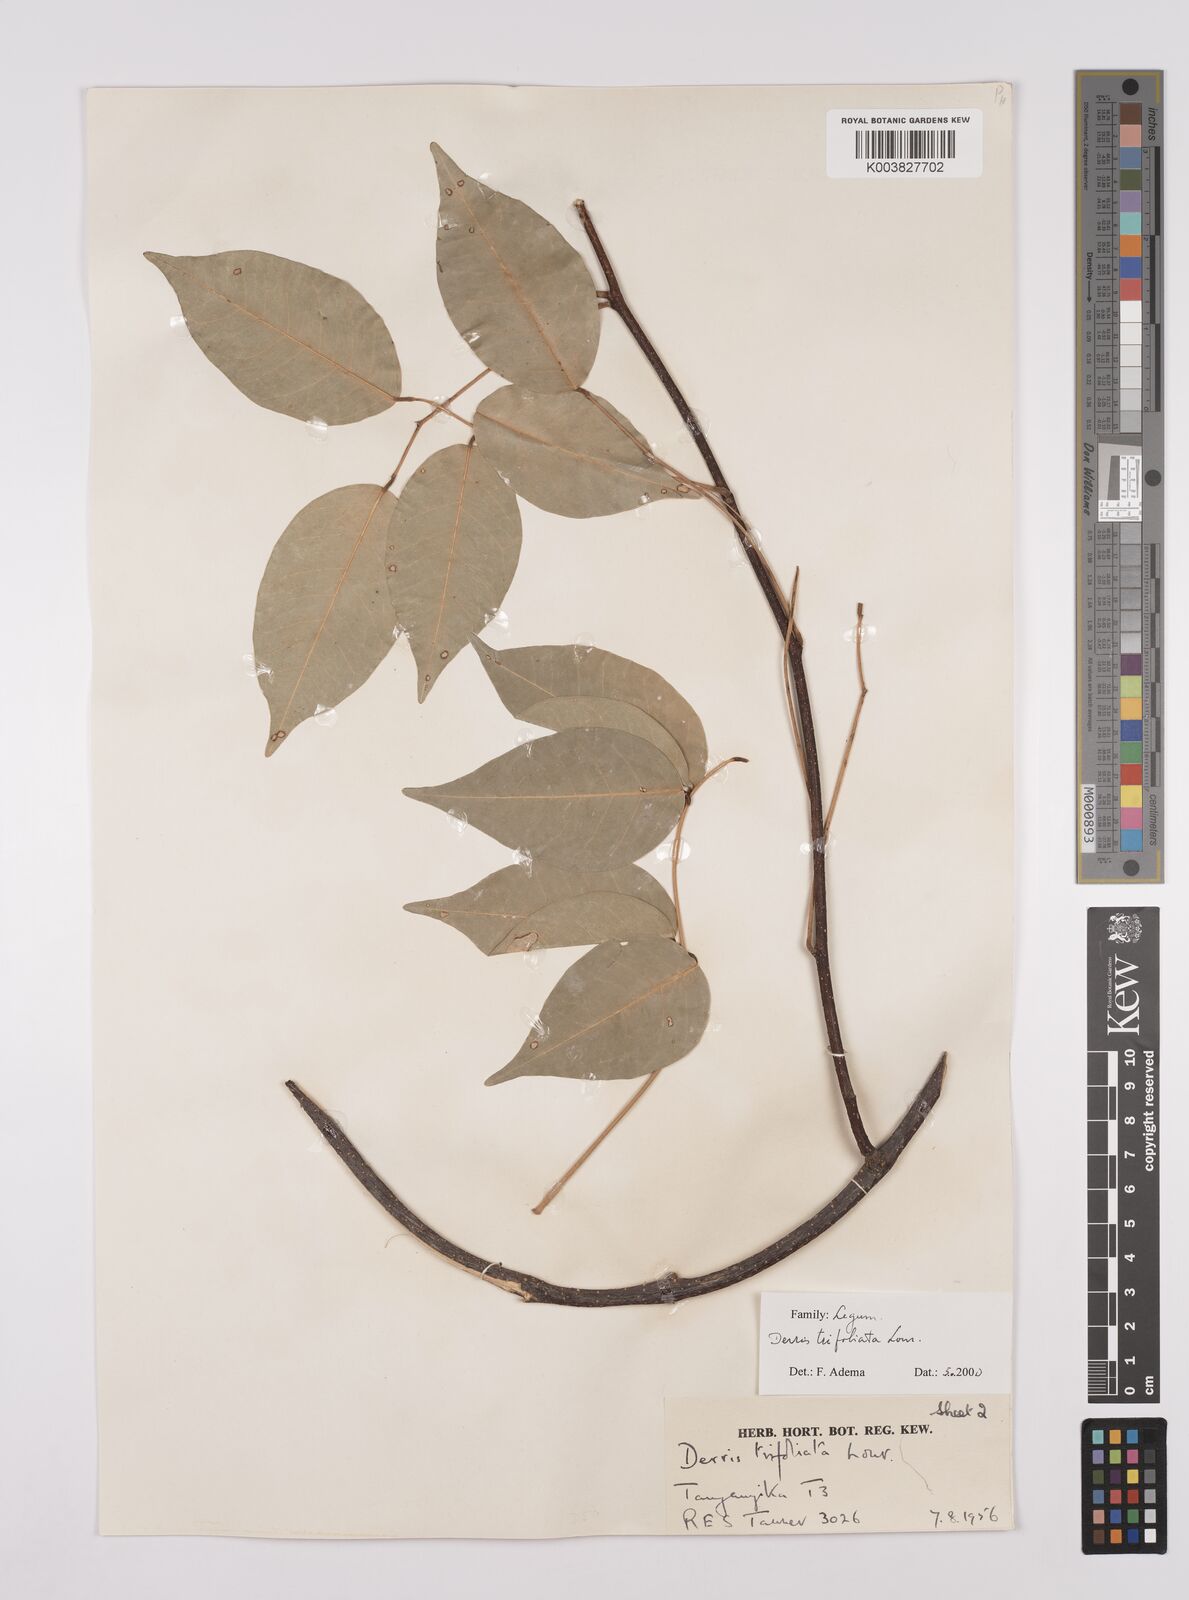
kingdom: Plantae
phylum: Tracheophyta
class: Magnoliopsida
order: Fabales
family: Fabaceae
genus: Derris
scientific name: Derris trifoliata
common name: Three-leaf derris
